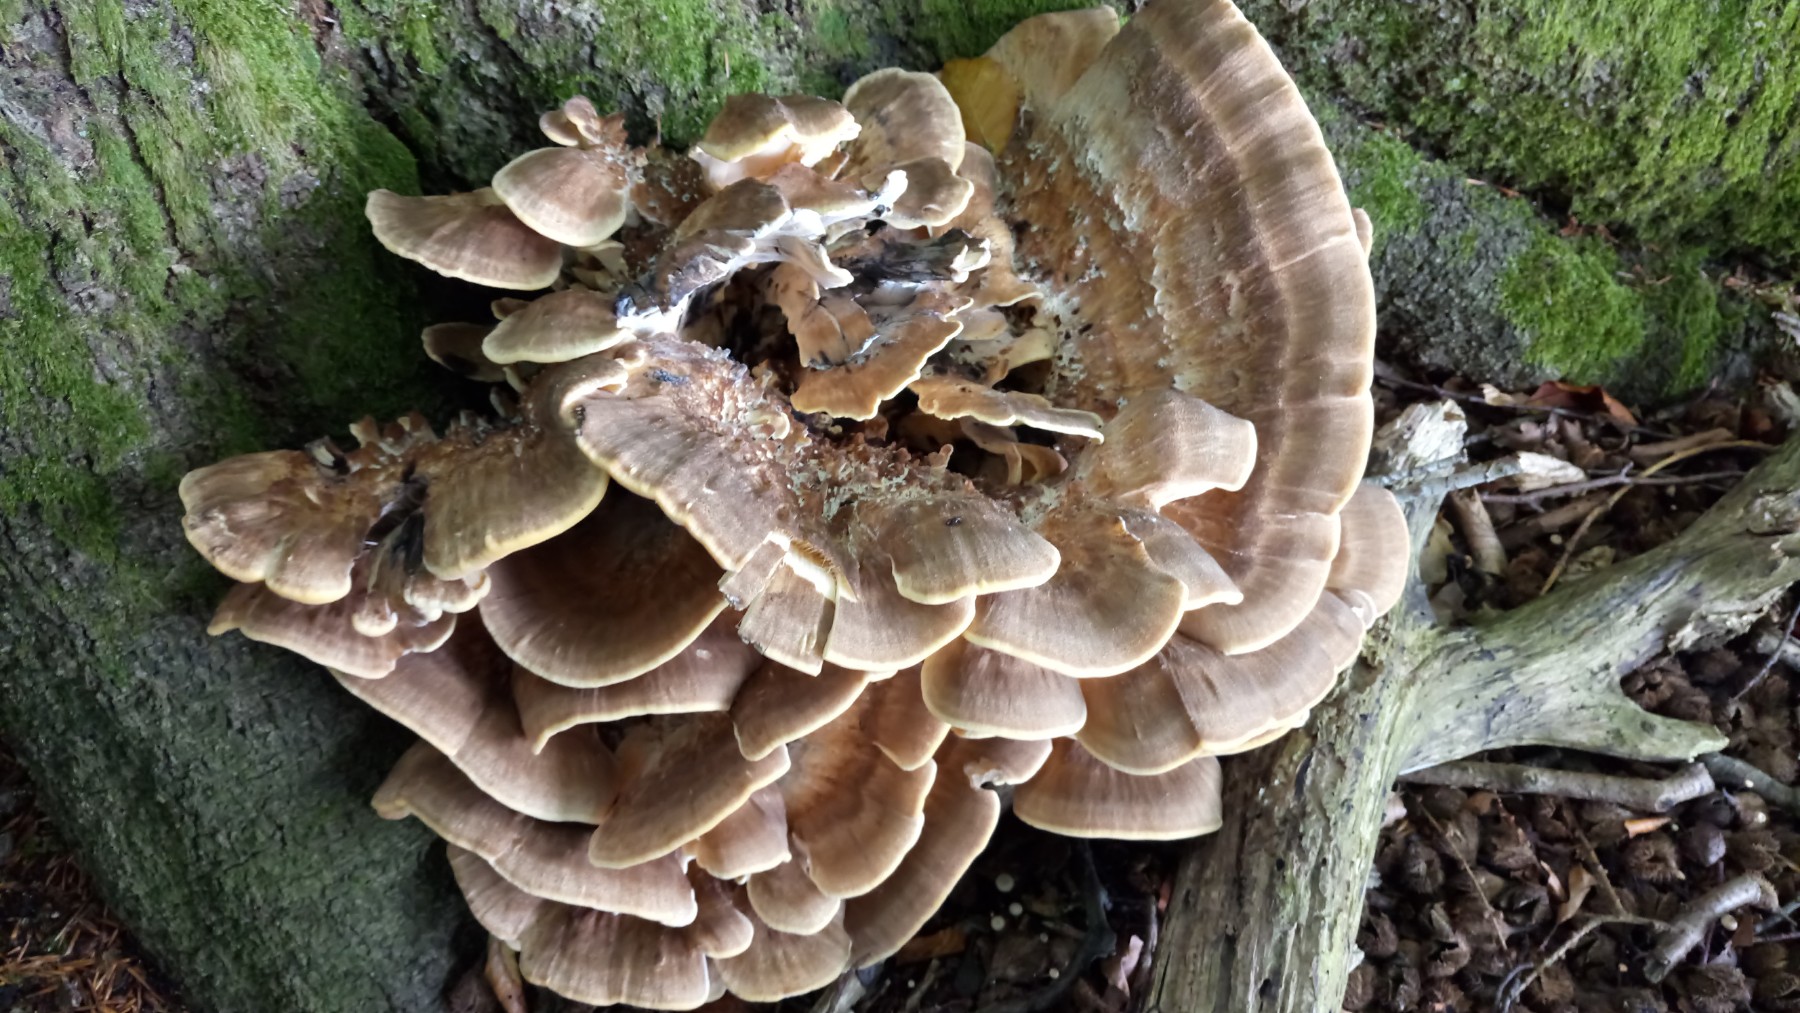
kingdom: Fungi
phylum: Basidiomycota
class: Agaricomycetes
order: Polyporales
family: Meripilaceae
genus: Meripilus
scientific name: Meripilus giganteus
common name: kæmpeporesvamp
